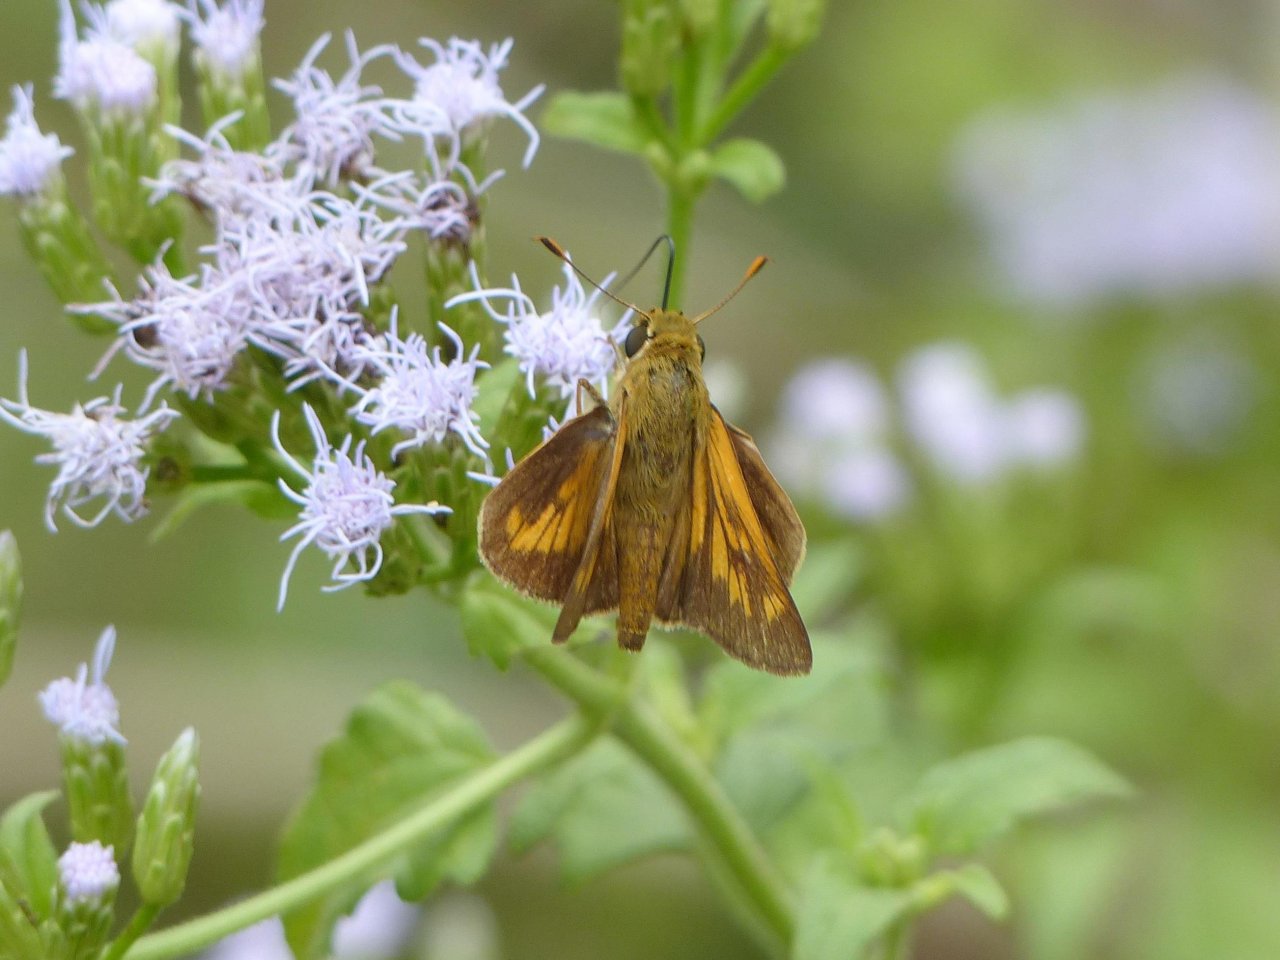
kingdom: Animalia
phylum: Arthropoda
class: Insecta
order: Lepidoptera
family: Hesperiidae
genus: Mellana
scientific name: Mellana eulogius
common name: Common Mellana
